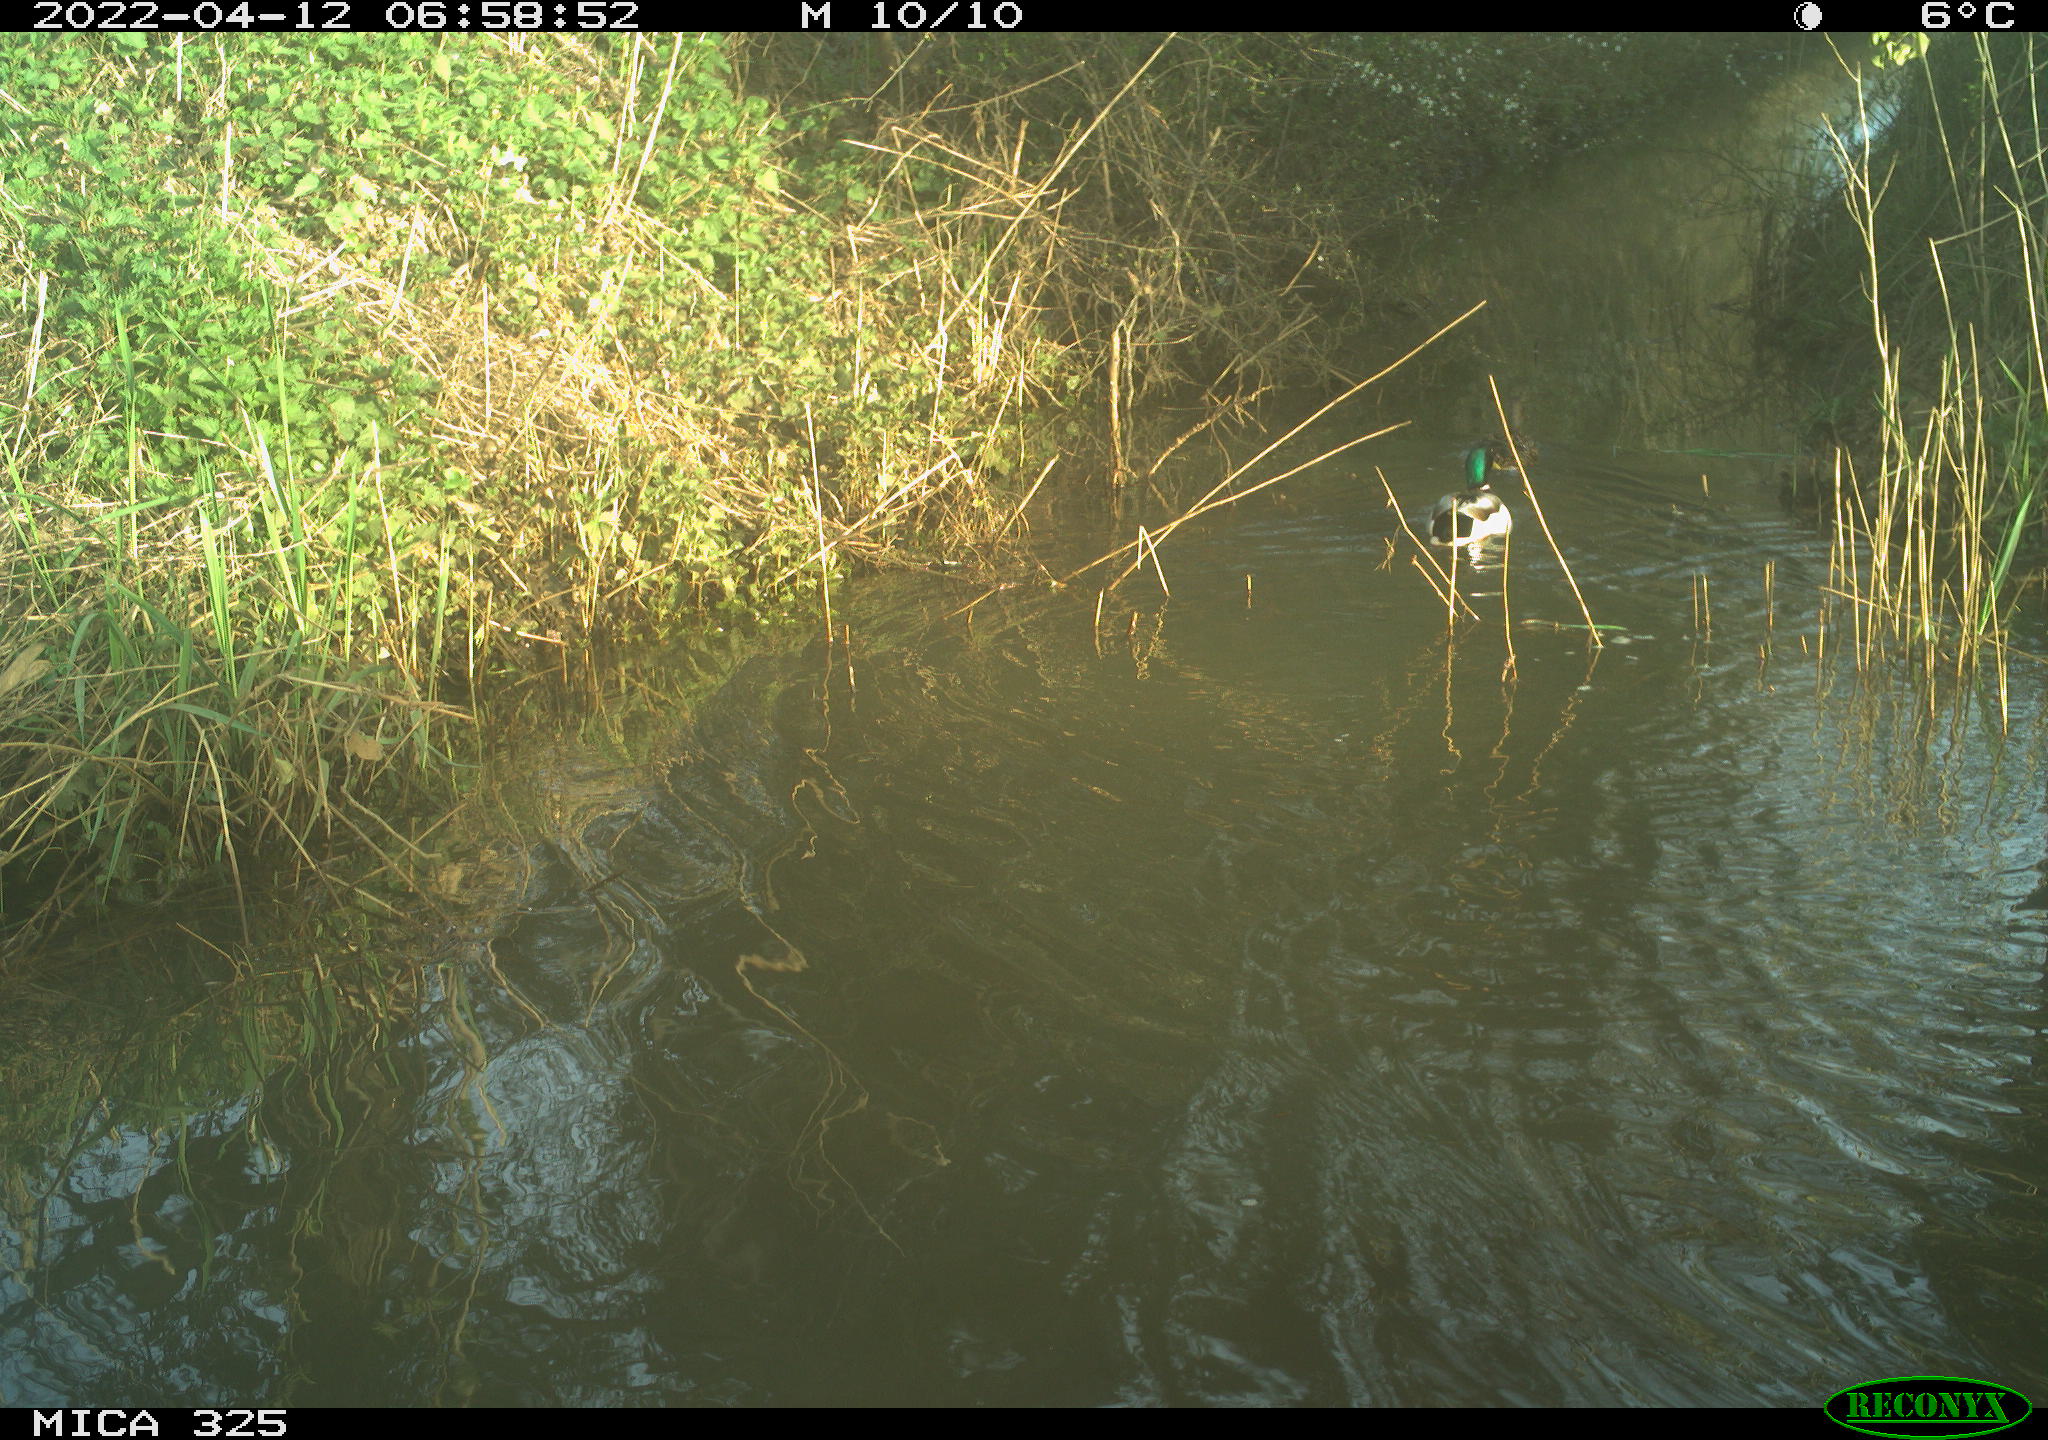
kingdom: Animalia
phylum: Chordata
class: Aves
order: Anseriformes
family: Anatidae
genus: Anas
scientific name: Anas platyrhynchos
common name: Mallard
